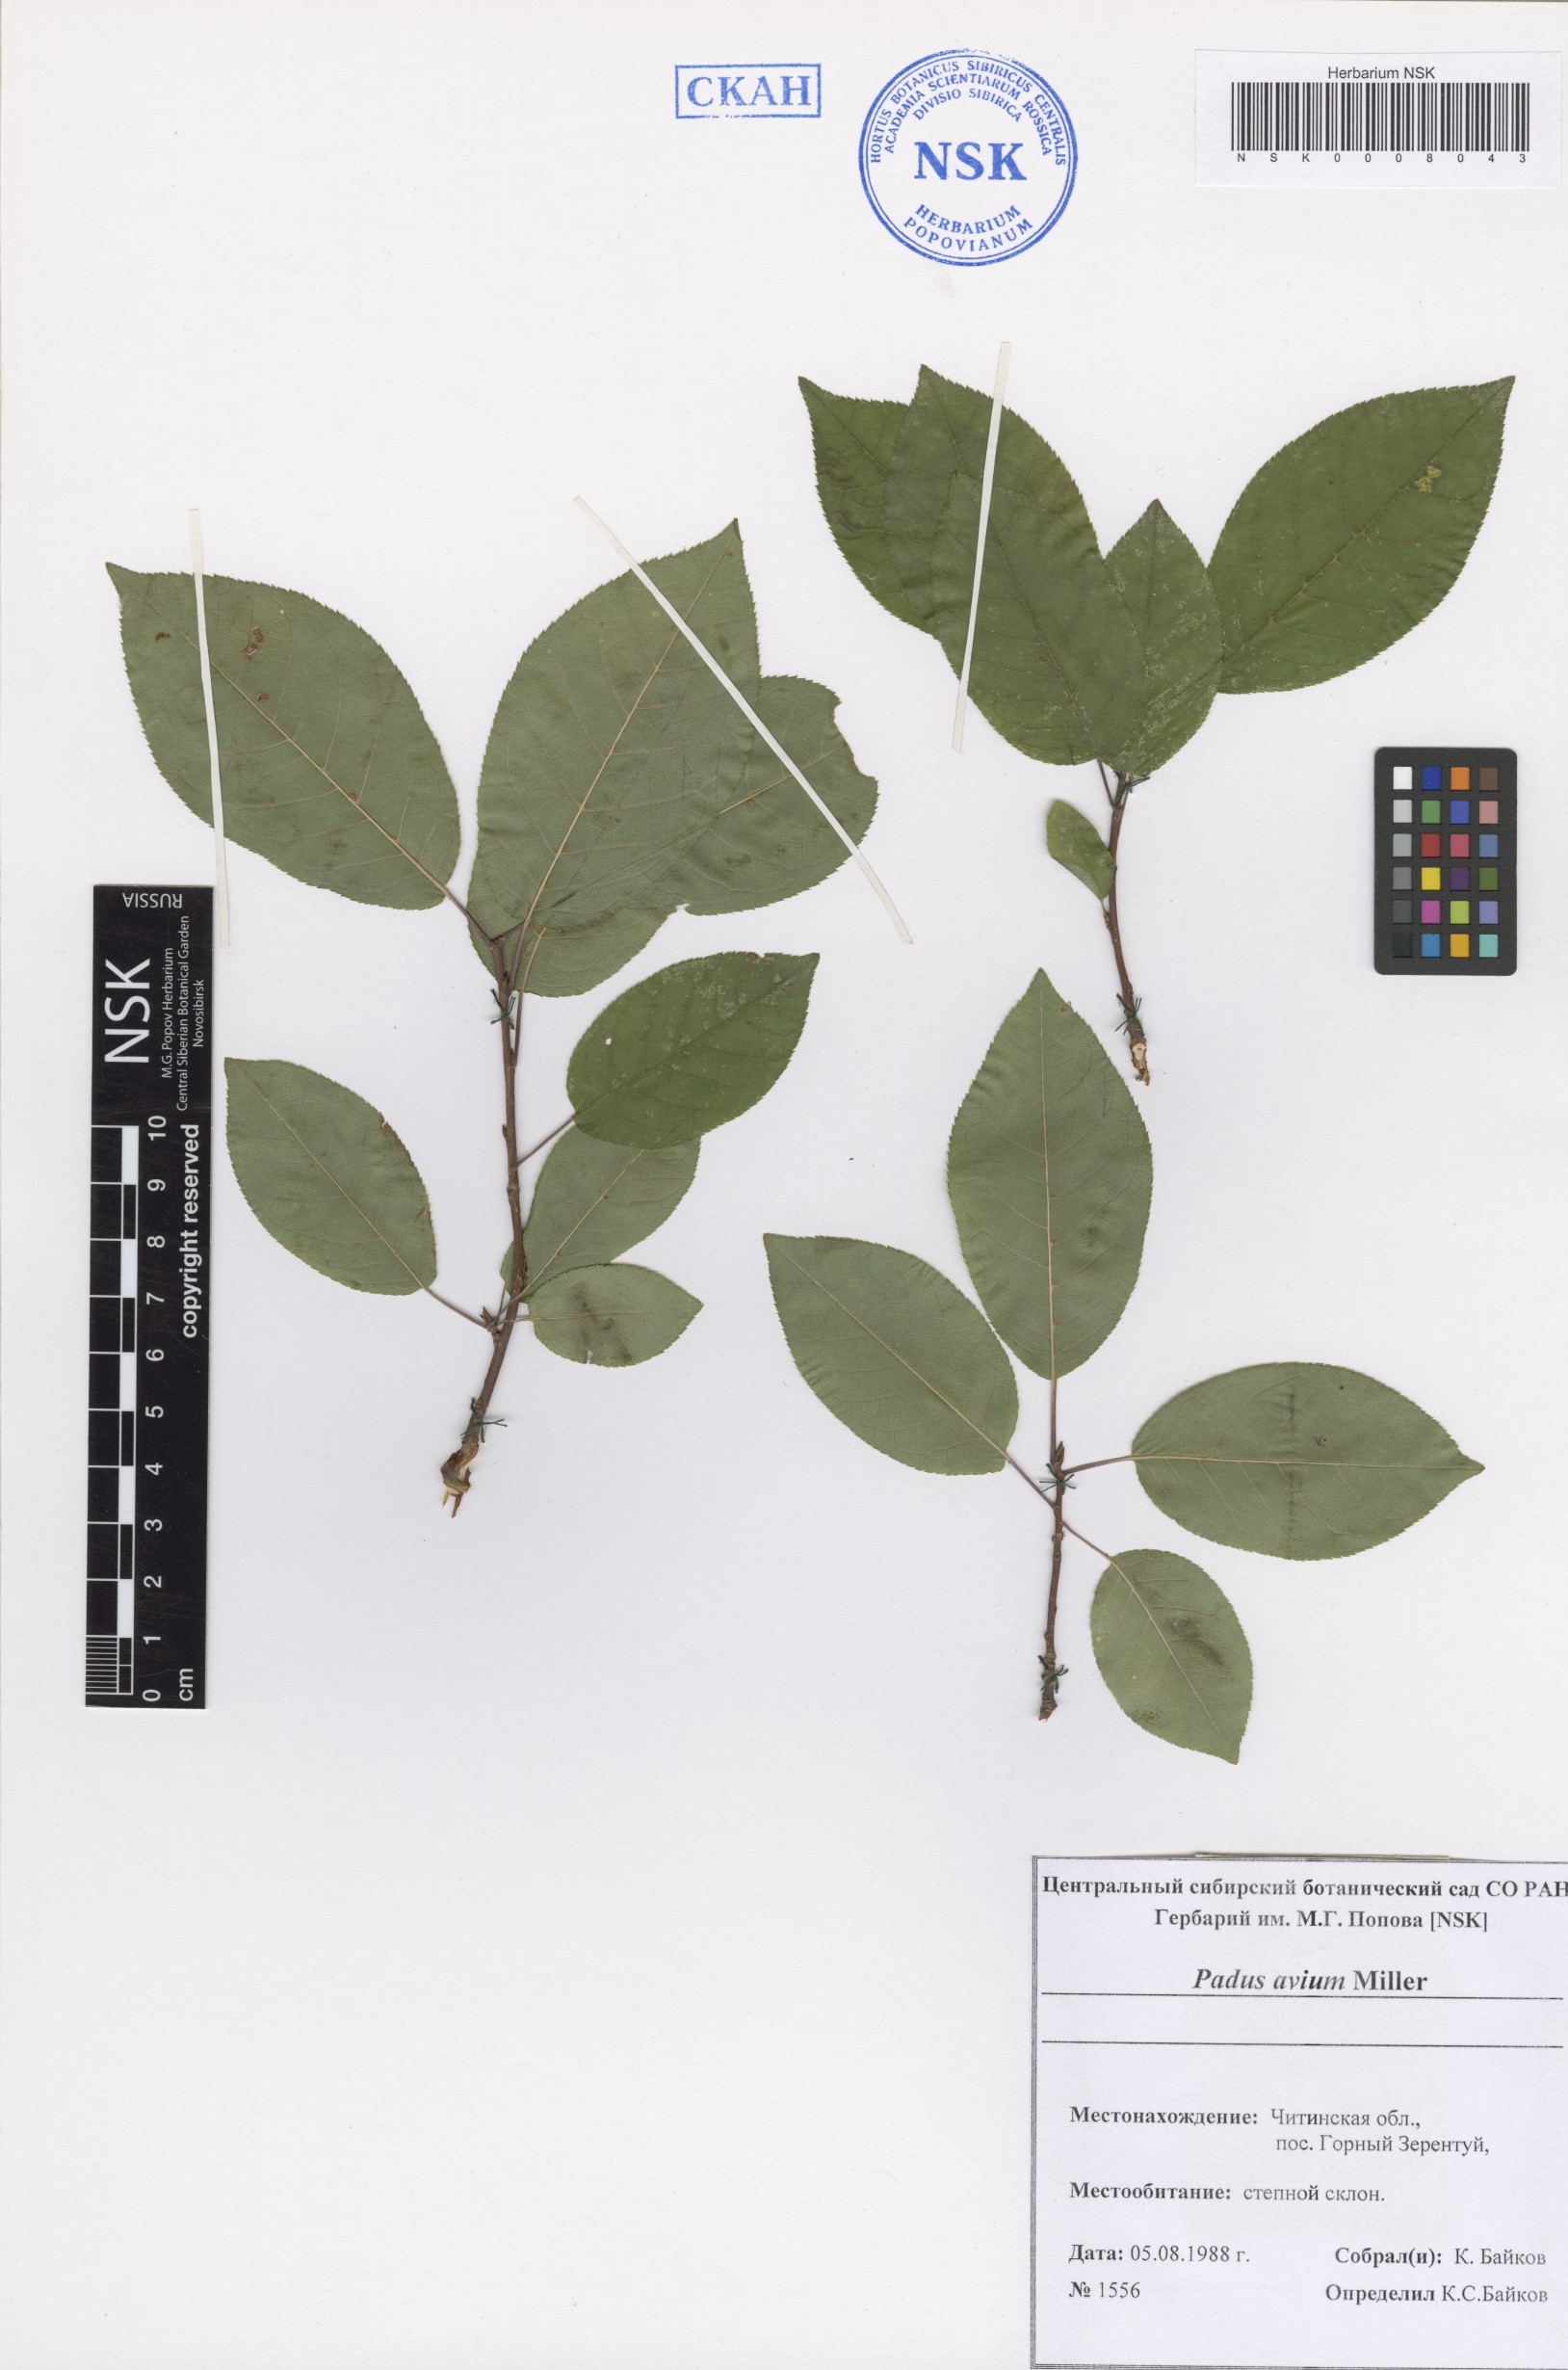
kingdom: Plantae
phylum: Tracheophyta
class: Magnoliopsida
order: Rosales
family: Rosaceae
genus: Prunus
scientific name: Prunus padus
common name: Bird cherry
